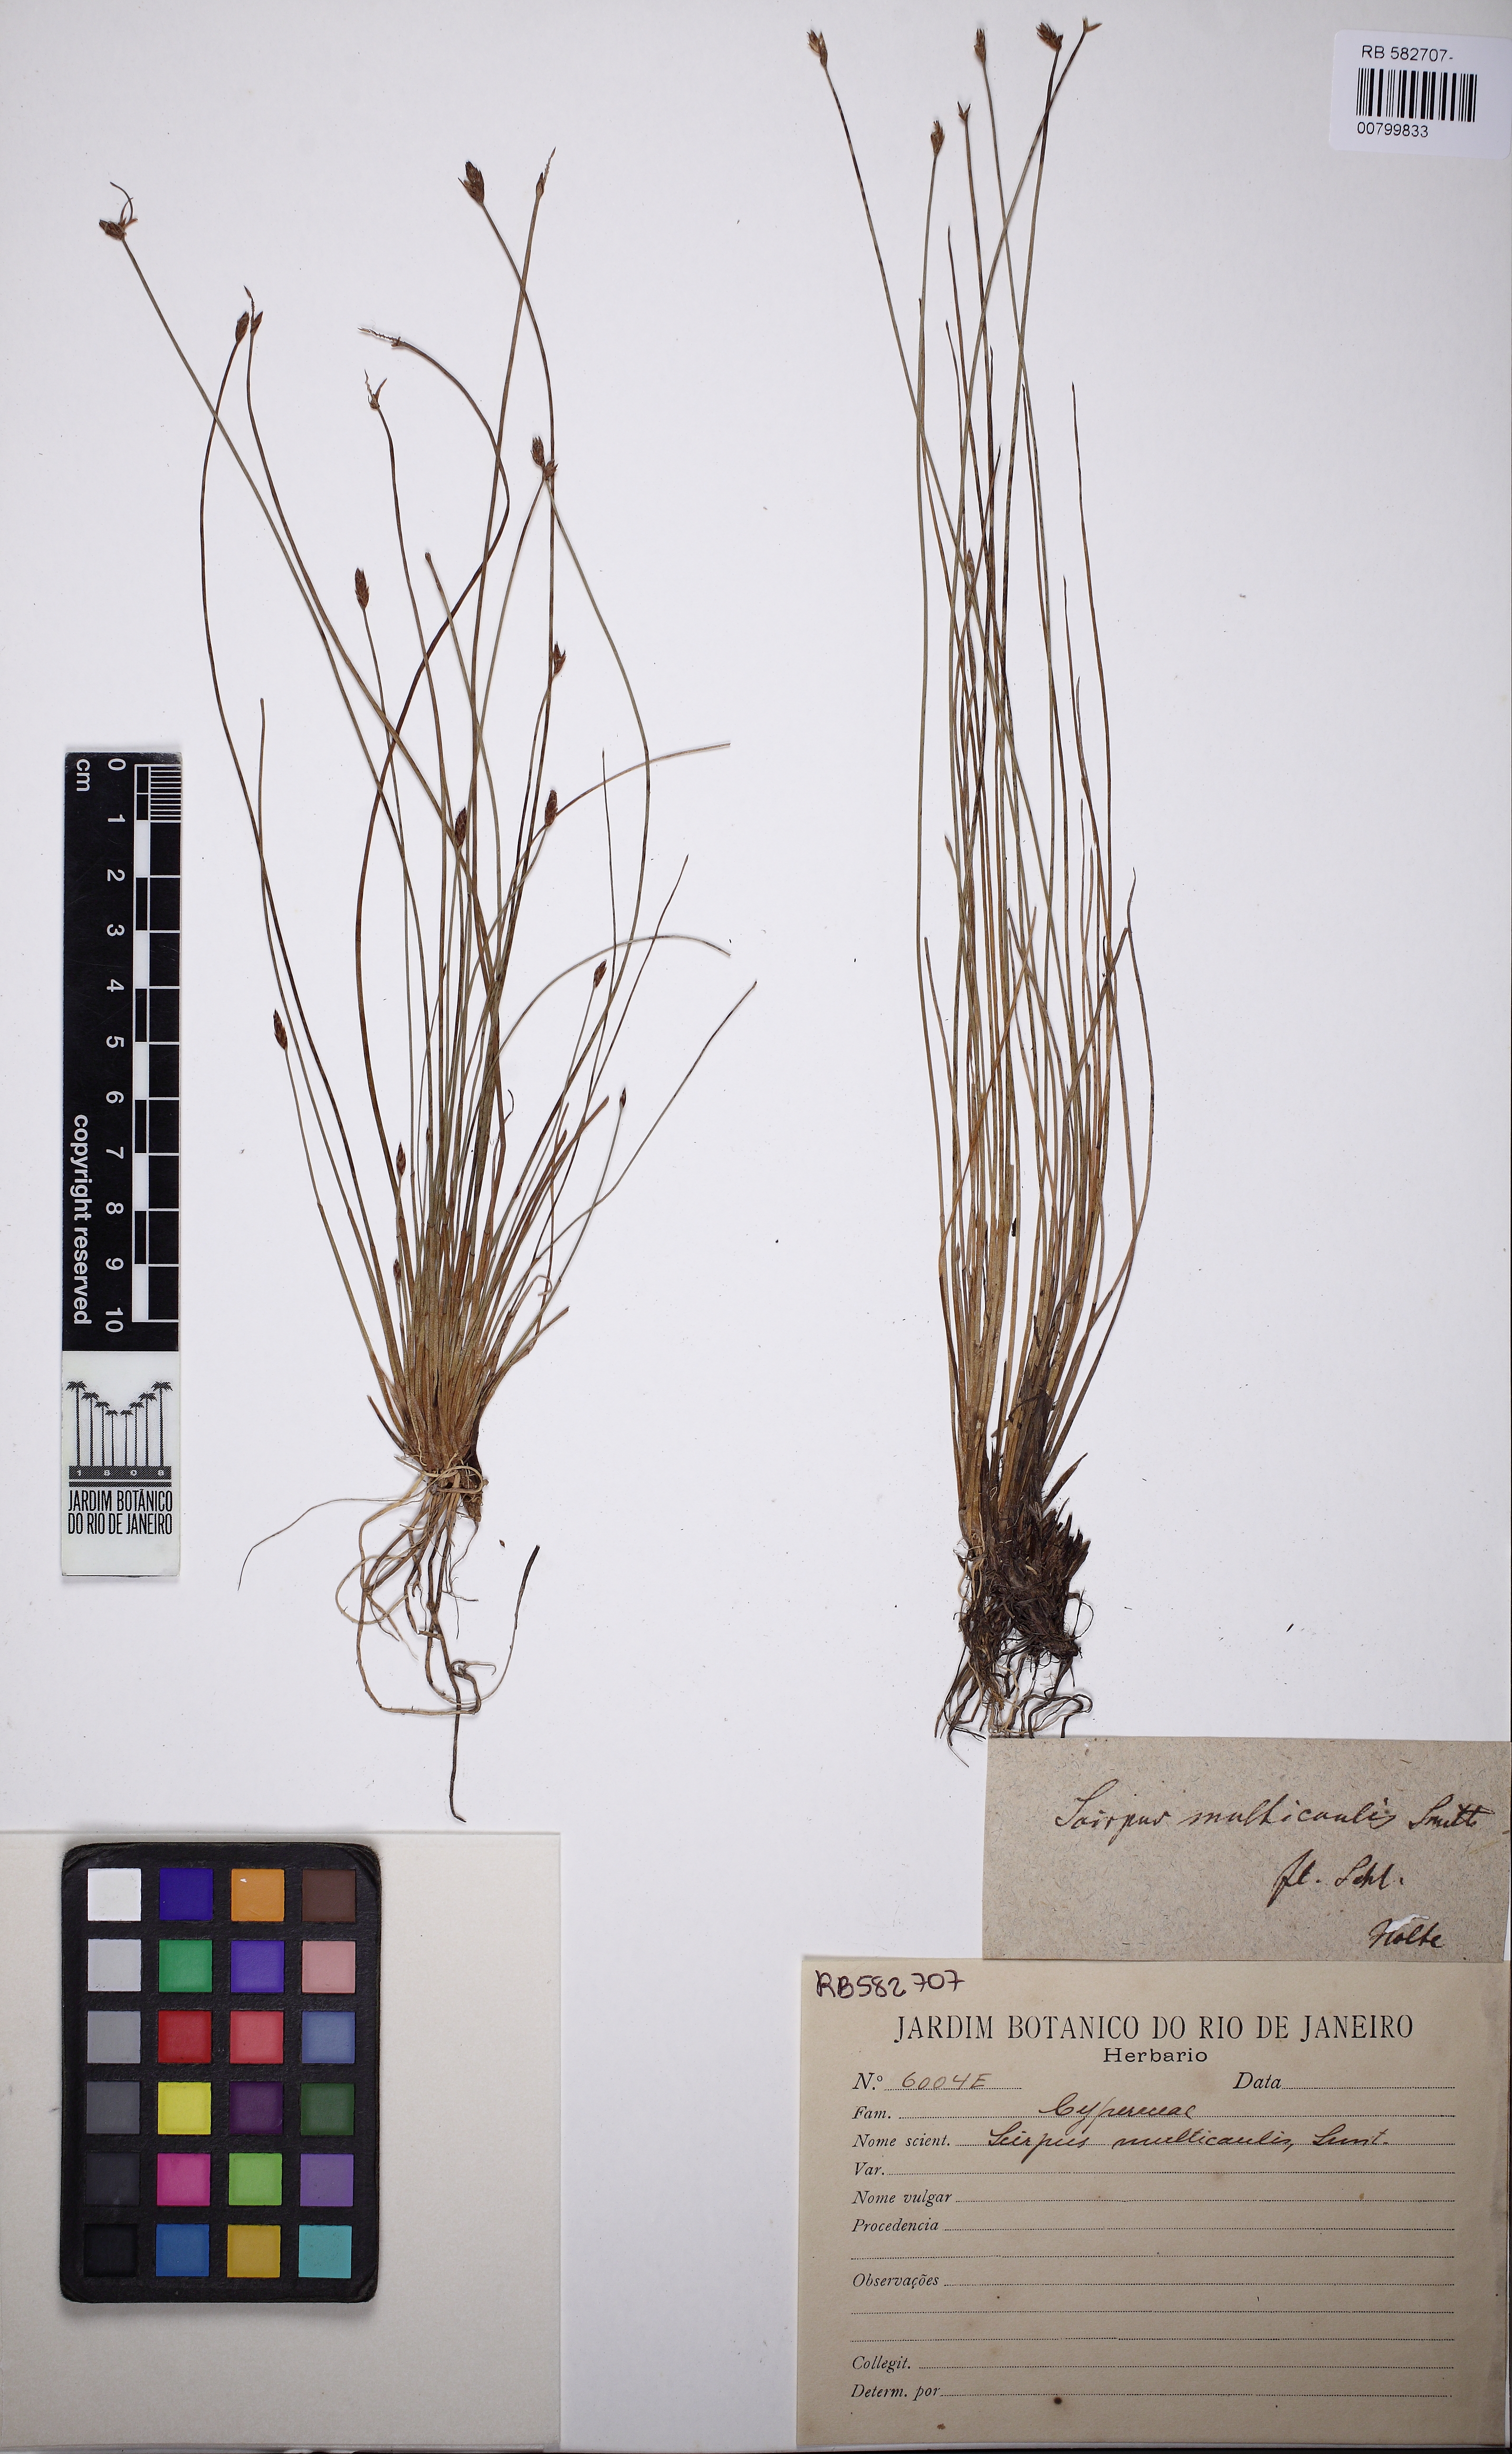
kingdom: Plantae
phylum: Tracheophyta
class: Liliopsida
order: Poales
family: Cyperaceae
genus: Eleocharis
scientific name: Eleocharis multicaulis
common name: Many-stalked spike-rush
